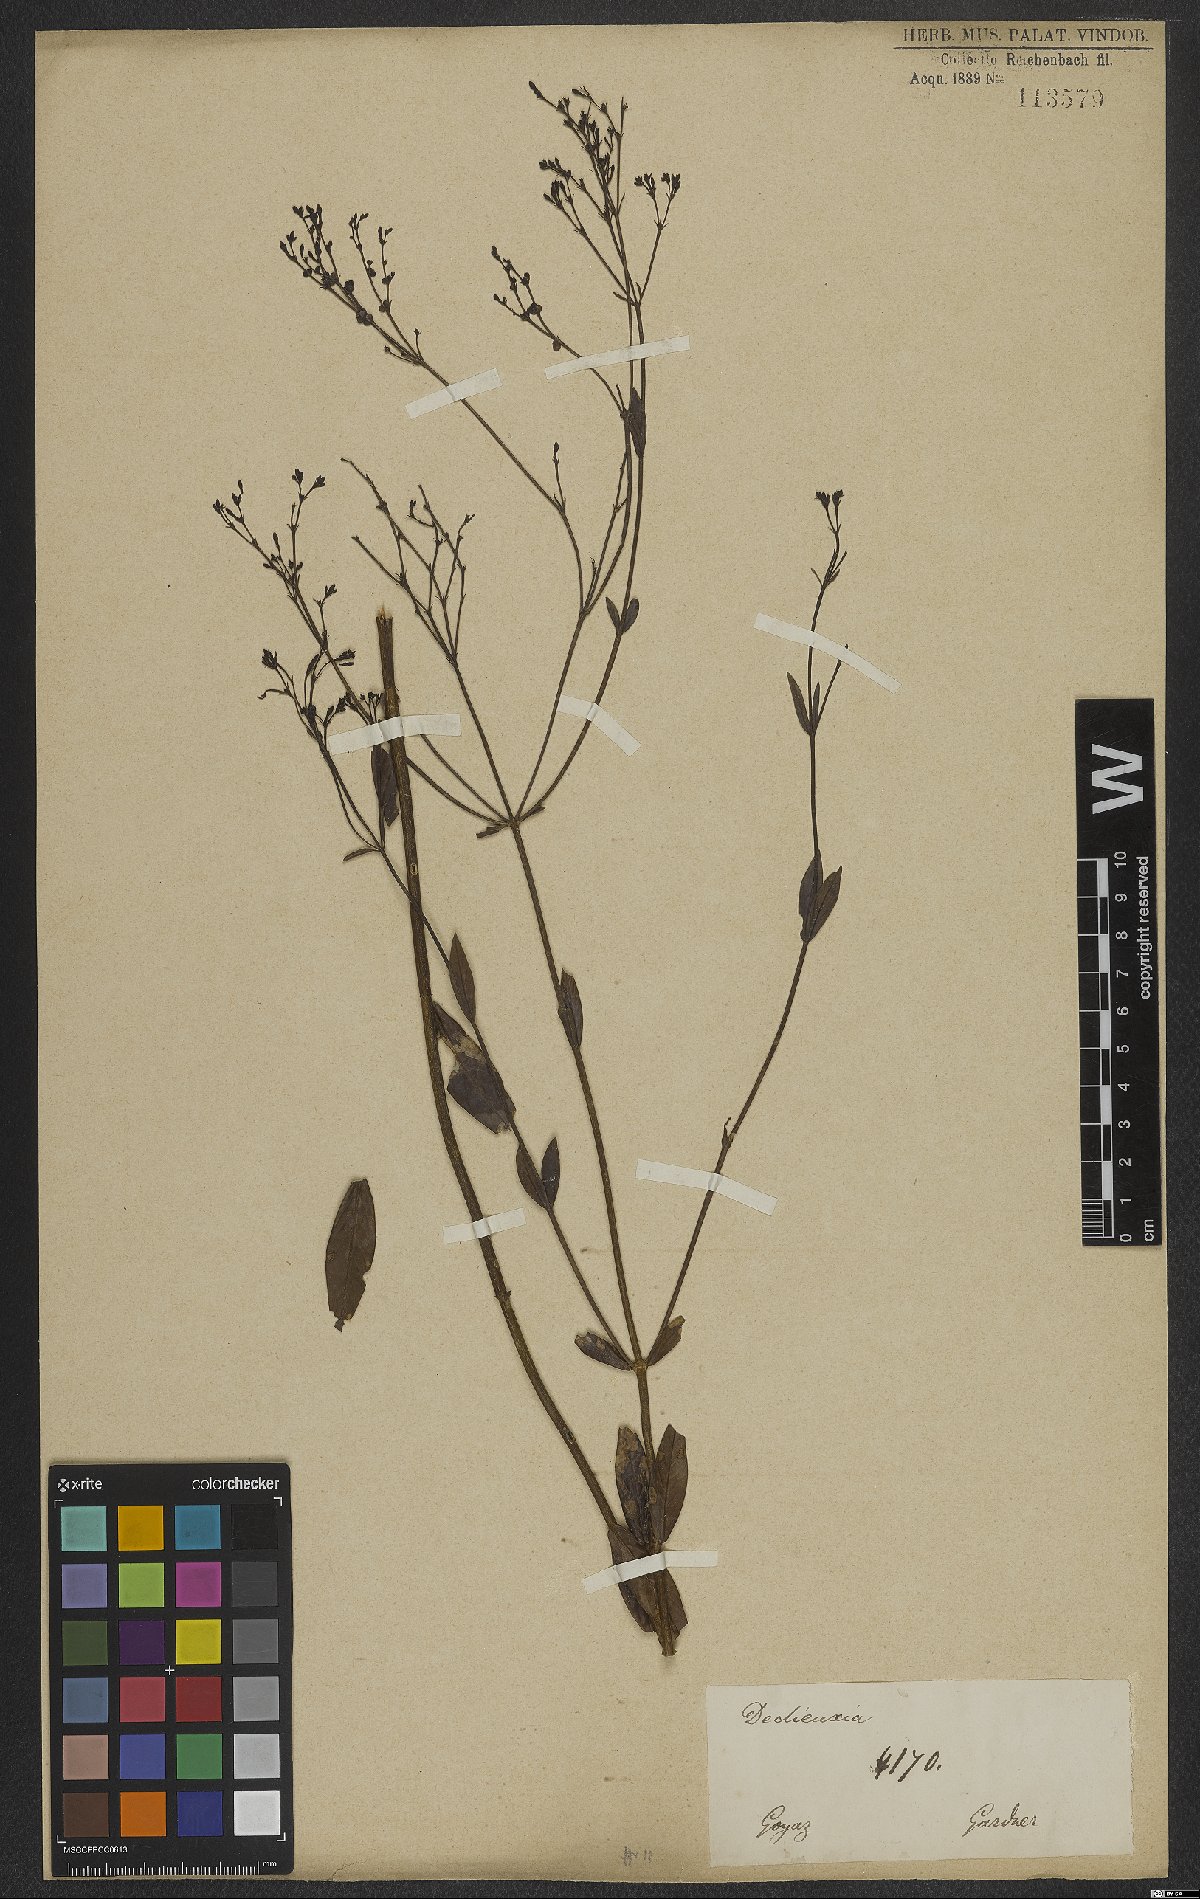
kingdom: Plantae
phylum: Tracheophyta
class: Magnoliopsida
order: Gentianales
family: Rubiaceae
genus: Declieuxia
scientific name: Declieuxia
